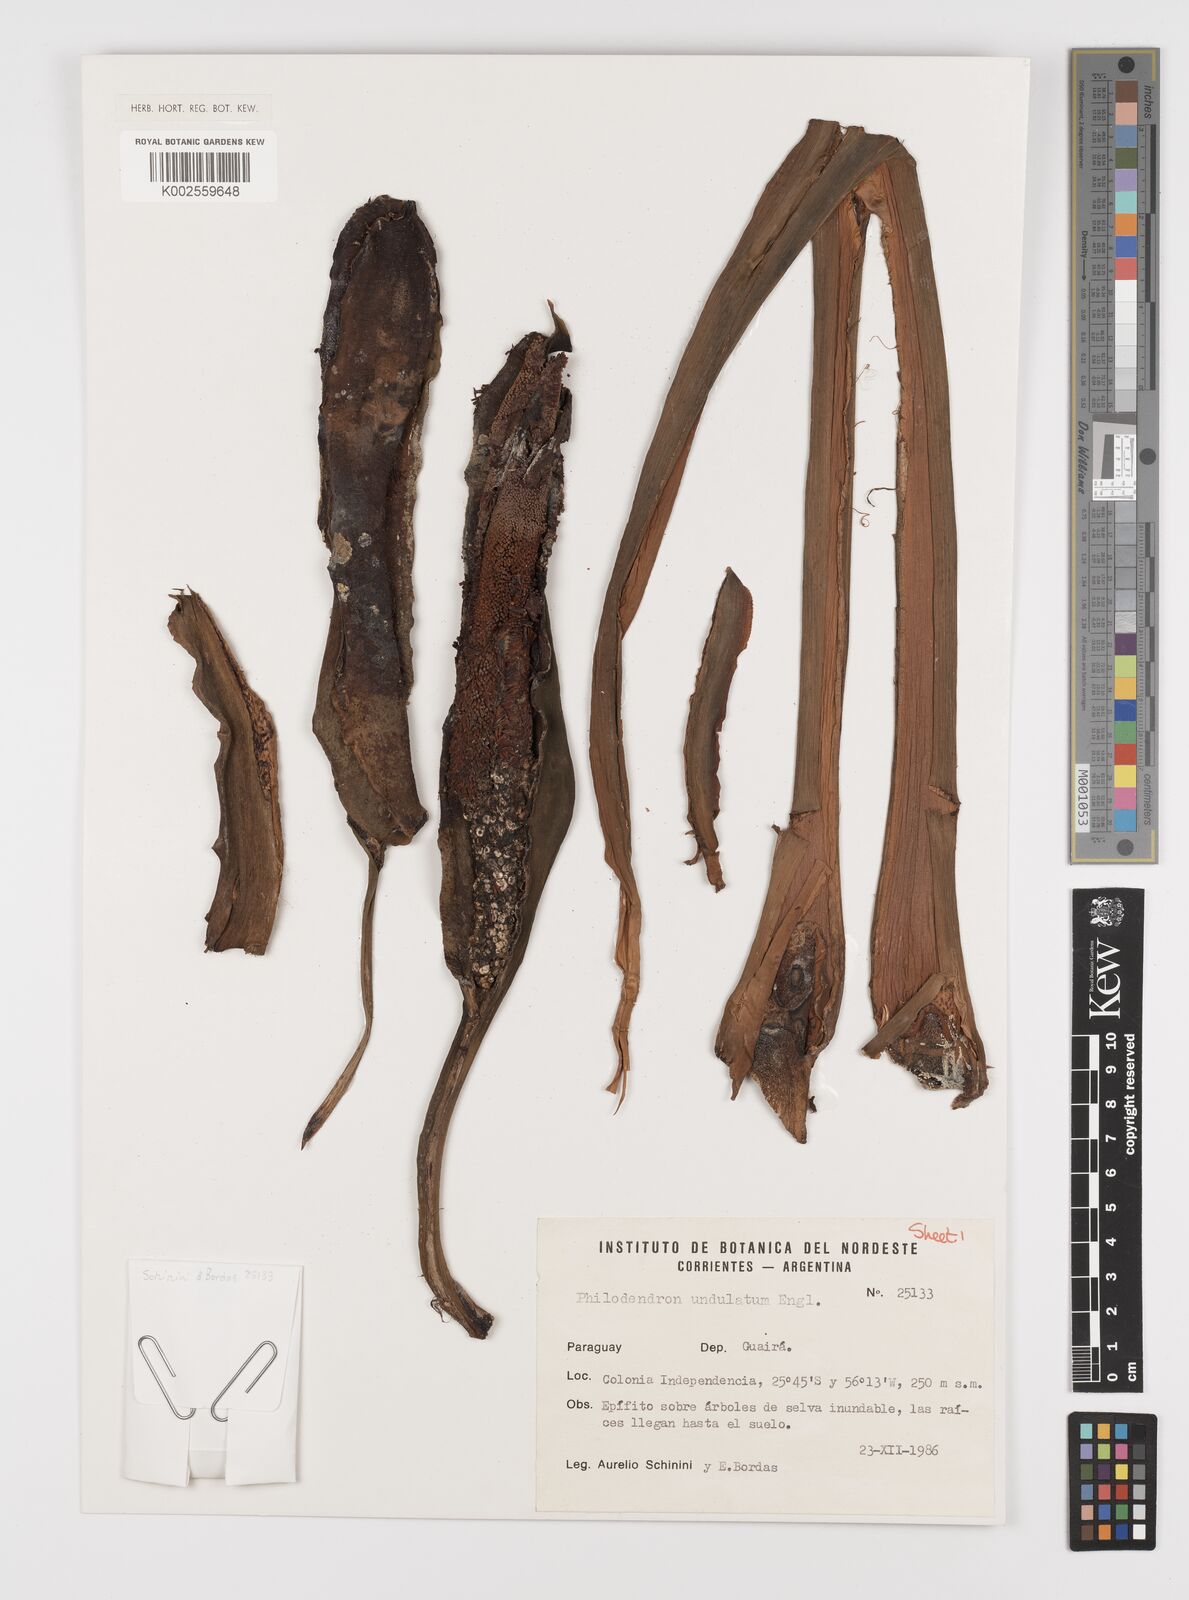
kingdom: Plantae
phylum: Tracheophyta
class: Liliopsida
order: Alismatales
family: Araceae
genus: Thaumatophyllum
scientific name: Thaumatophyllum undulatum
